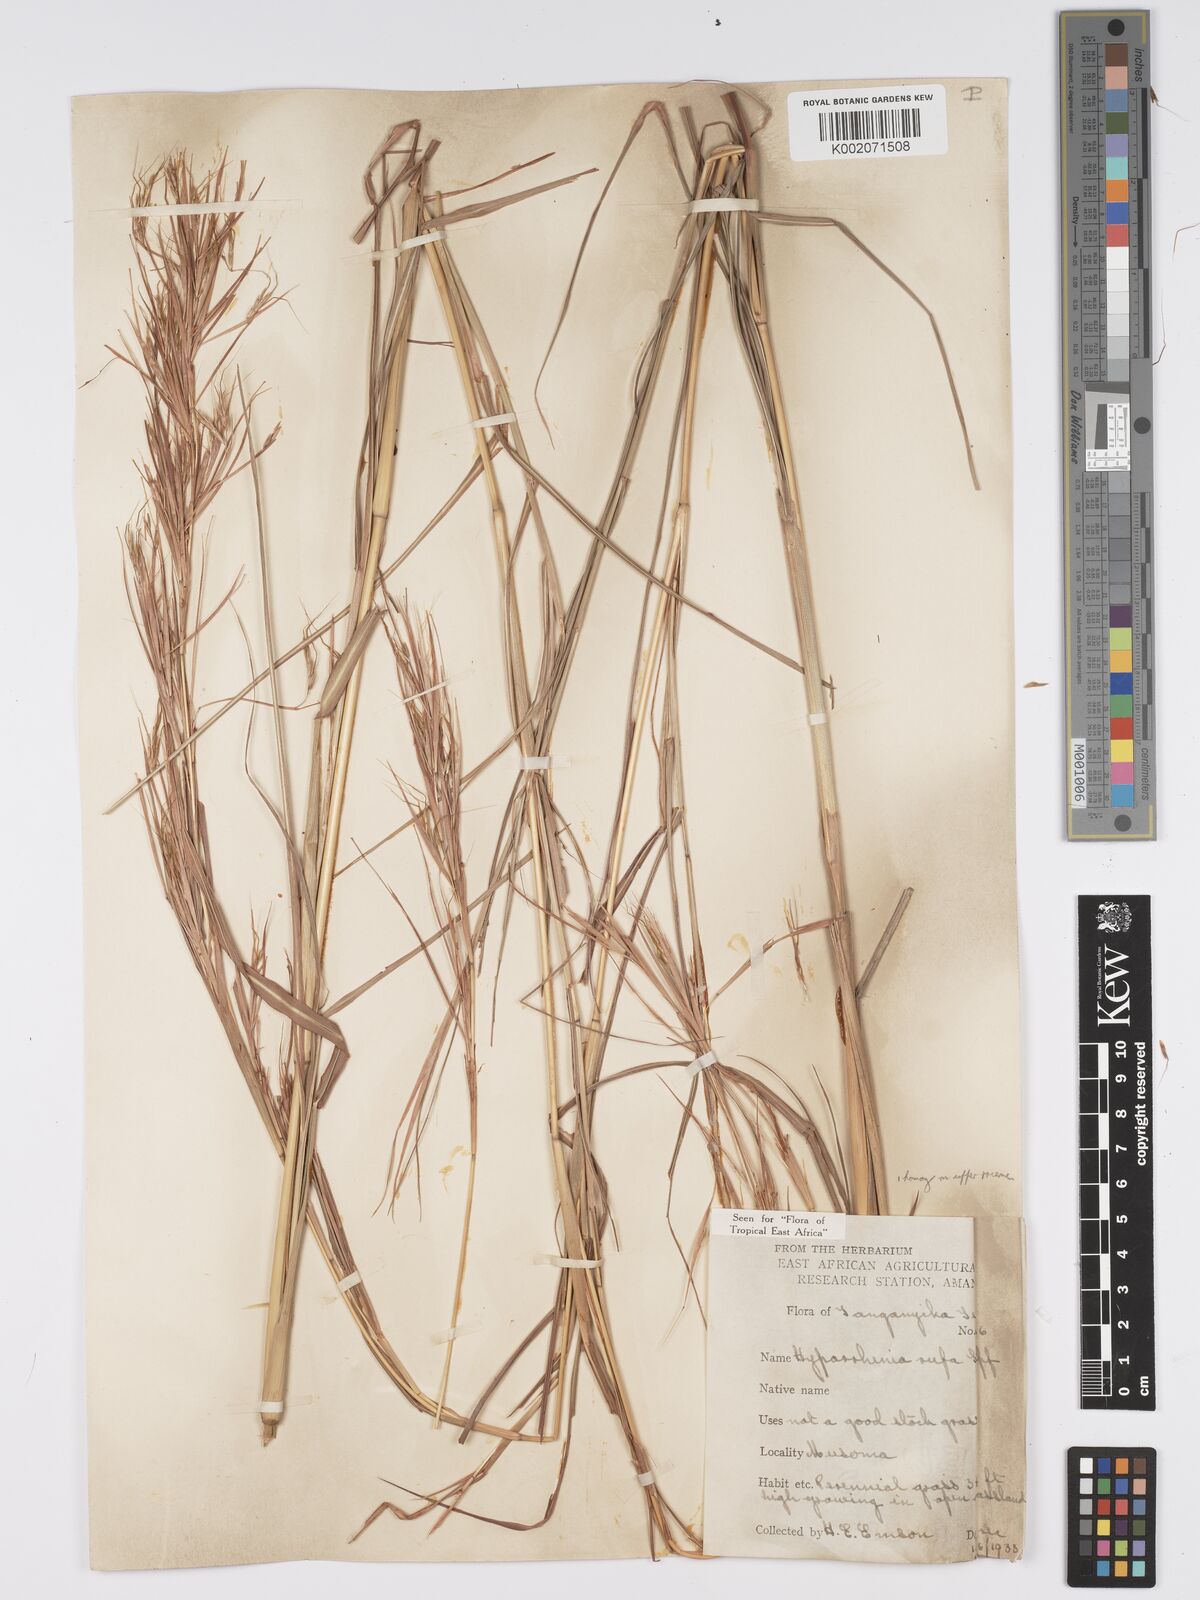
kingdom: Plantae
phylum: Tracheophyta
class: Liliopsida
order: Poales
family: Poaceae
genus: Hyparrhenia
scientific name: Hyparrhenia rufa
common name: Jaraguagrass
